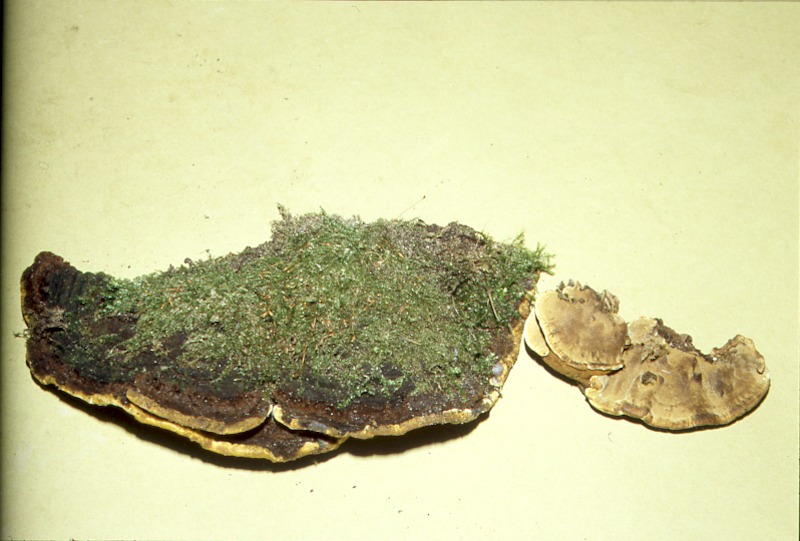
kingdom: Plantae
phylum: Tracheophyta
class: Magnoliopsida
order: Celastrales
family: Celastraceae
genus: Euonymus
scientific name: Euonymus europaeus
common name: Spindle
